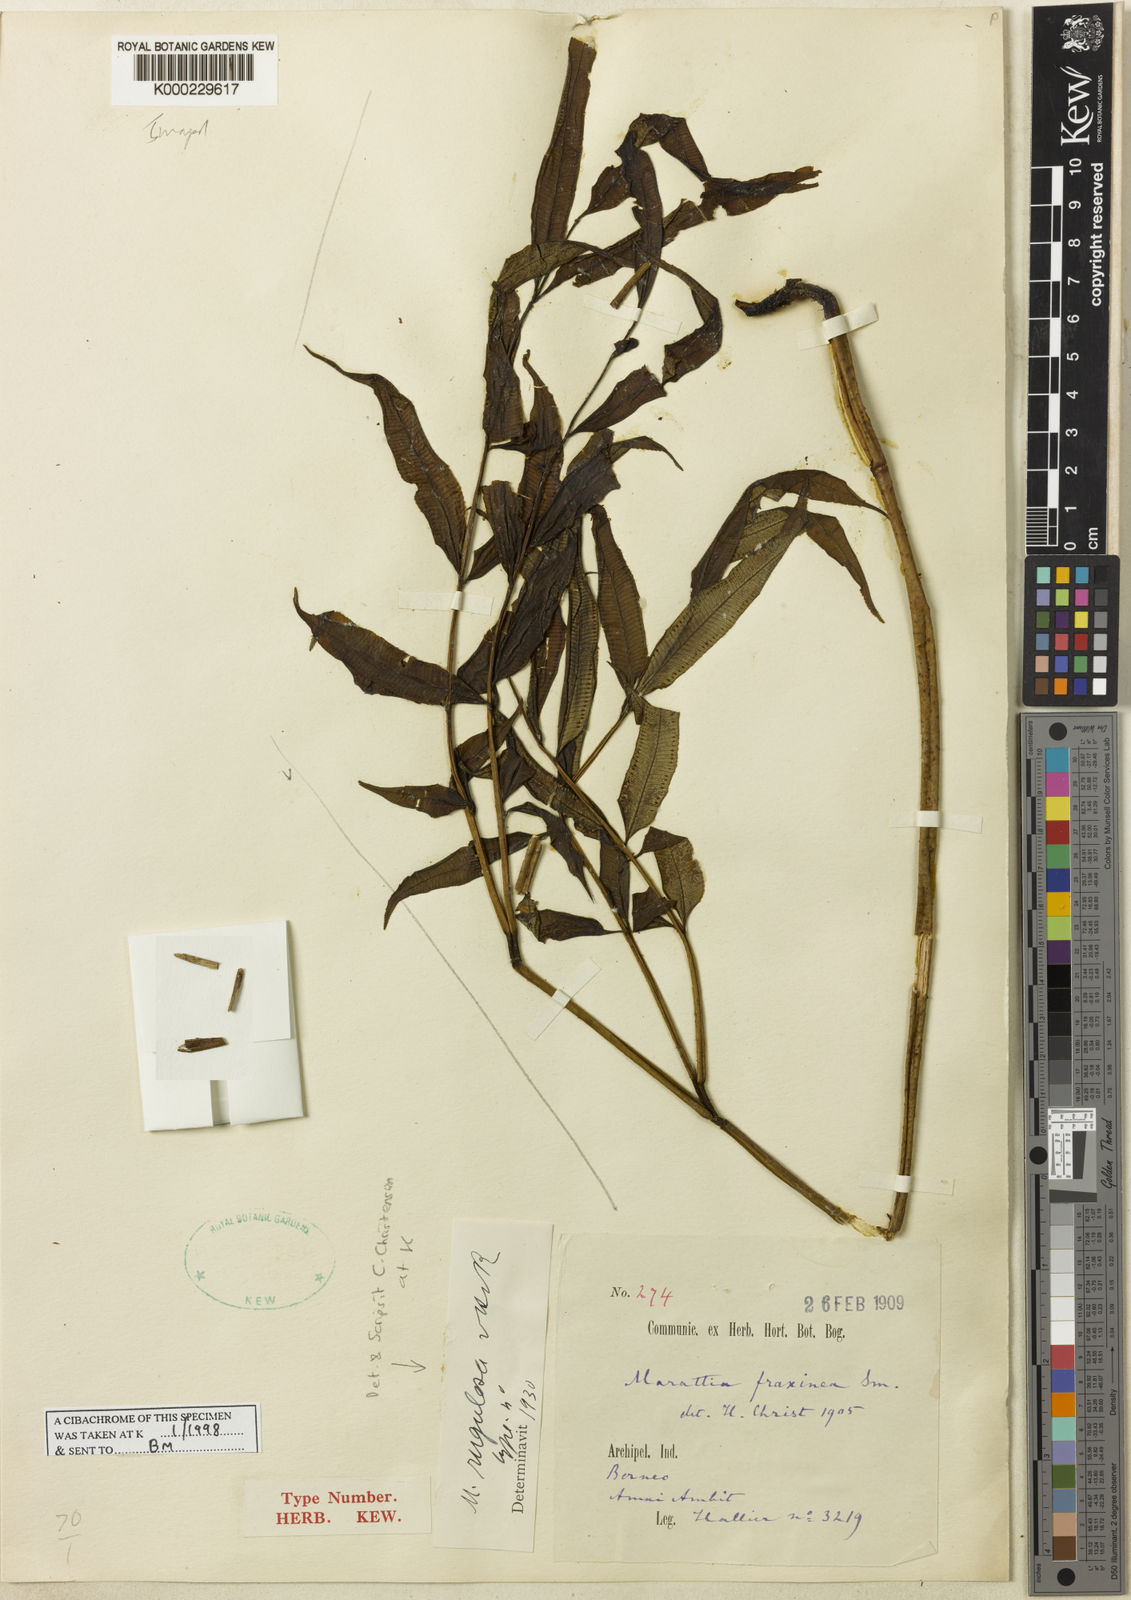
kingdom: Plantae
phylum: Tracheophyta
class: Polypodiopsida
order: Marattiales
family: Marattiaceae
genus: Ptisana
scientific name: Ptisana sambucina
